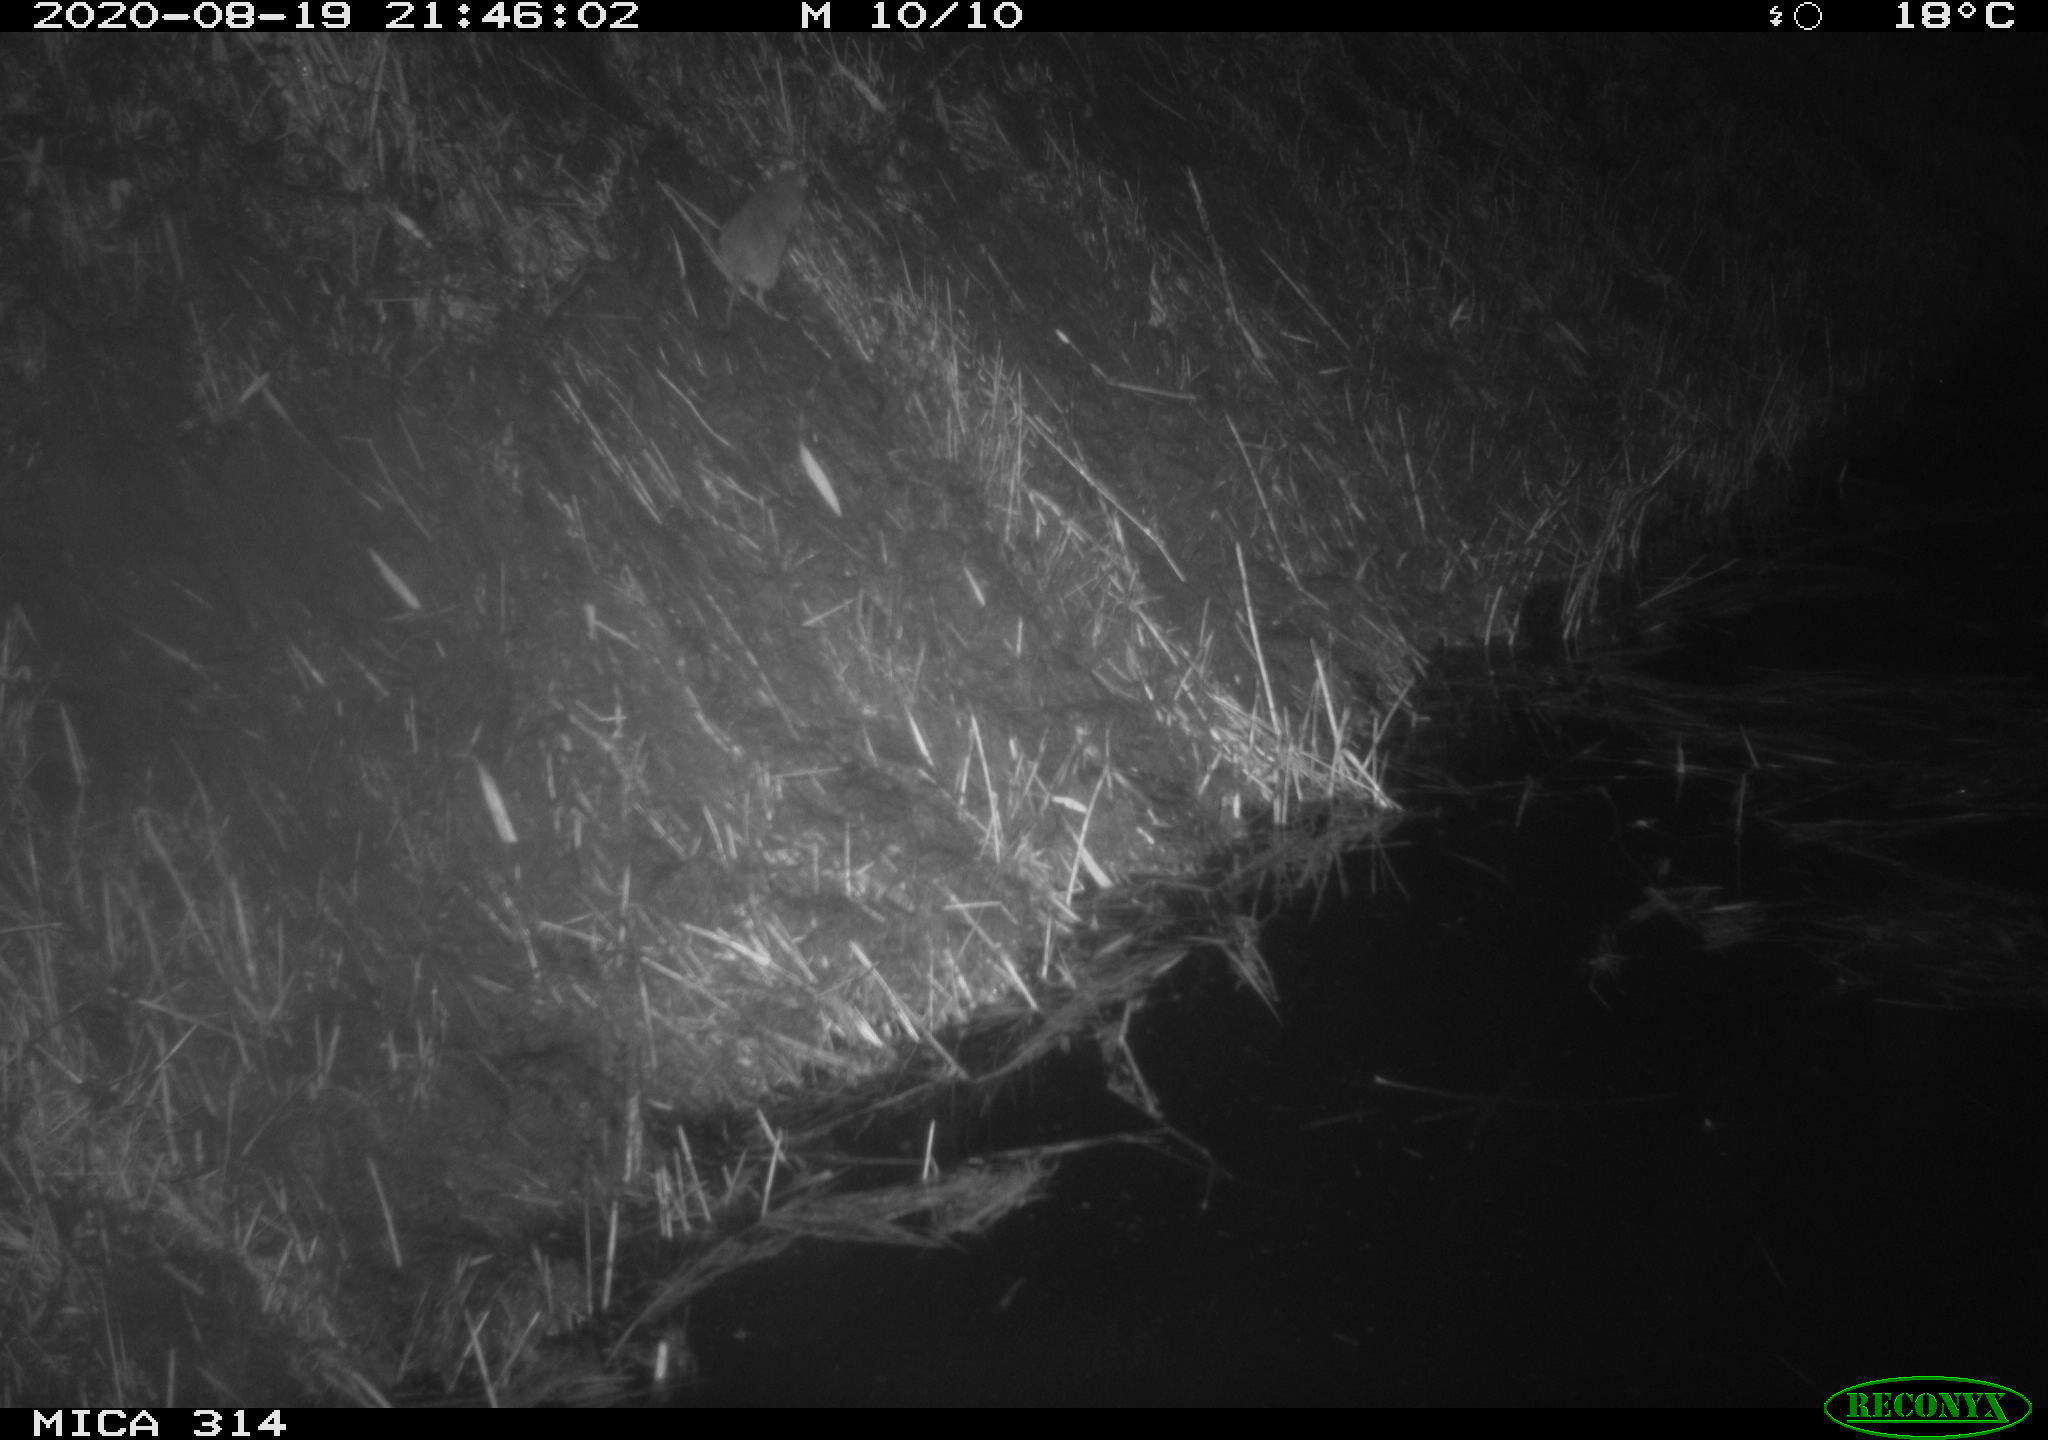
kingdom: Animalia
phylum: Chordata
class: Mammalia
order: Rodentia
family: Muridae
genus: Rattus
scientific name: Rattus norvegicus
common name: Brown rat
